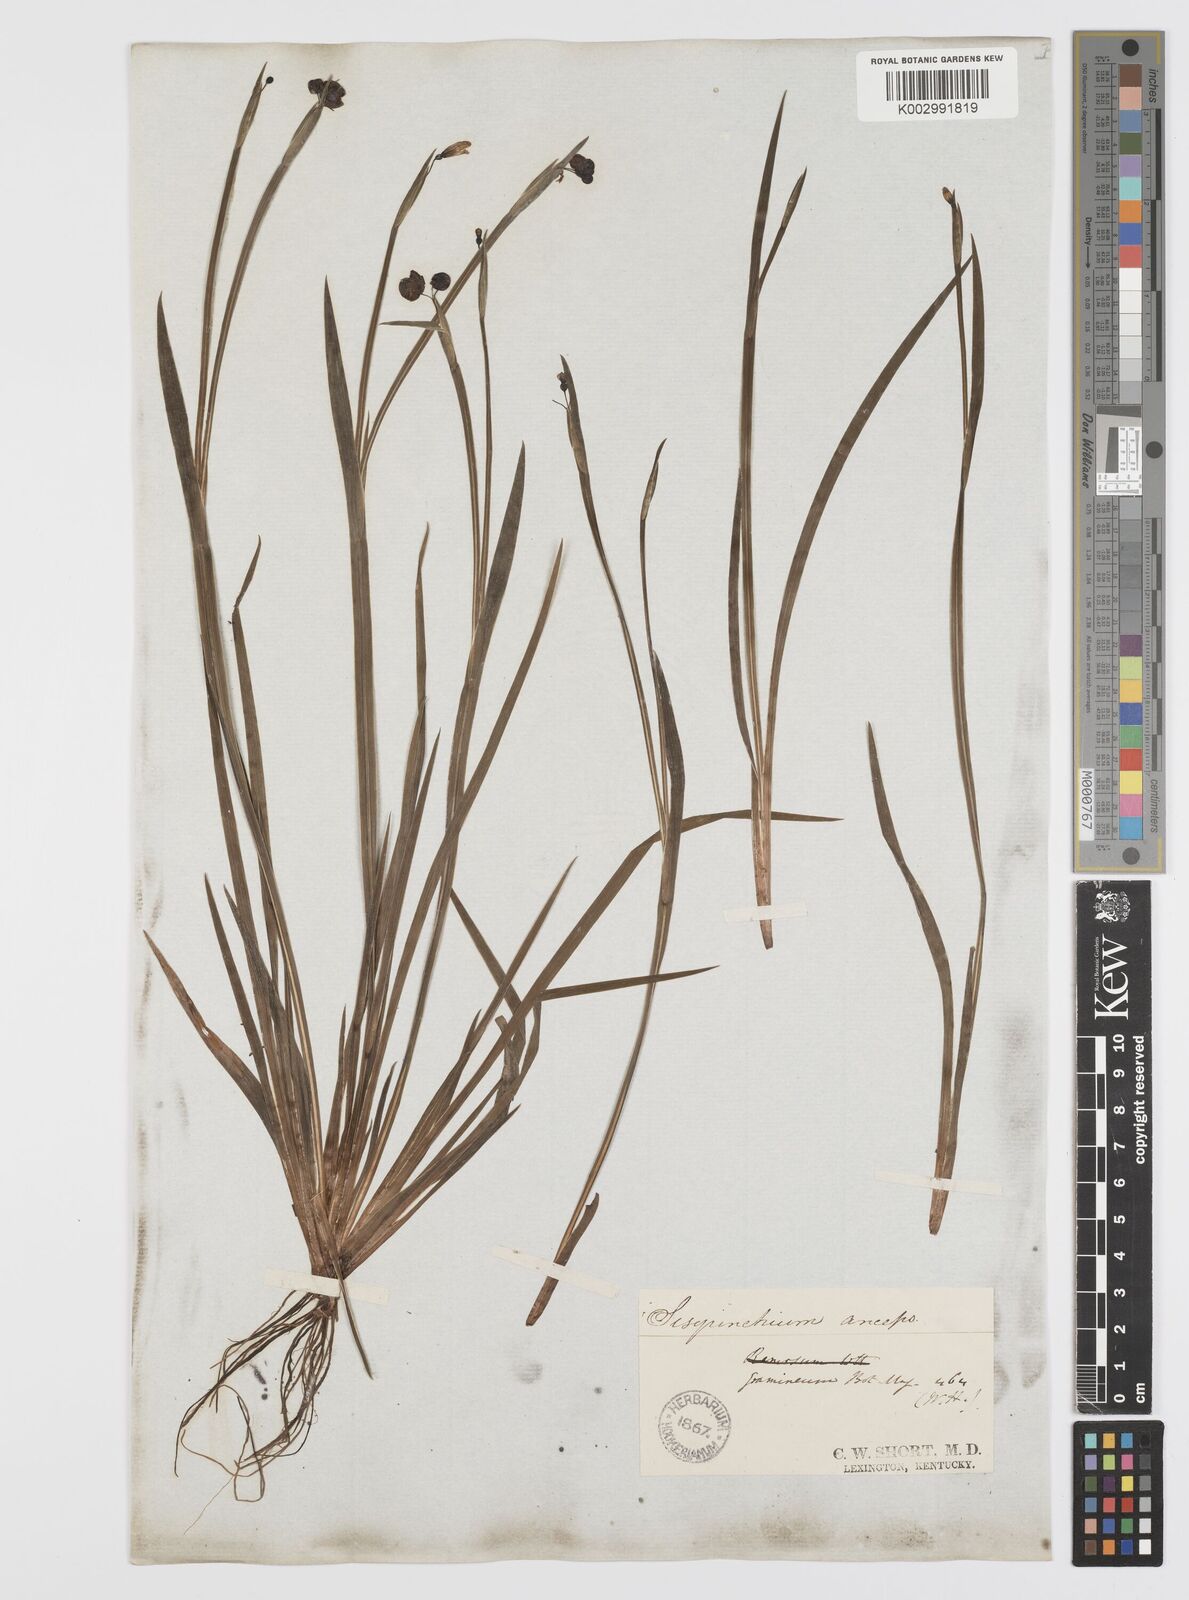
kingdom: Plantae
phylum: Tracheophyta
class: Liliopsida
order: Asparagales
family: Iridaceae
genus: Sisyrinchium
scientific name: Sisyrinchium bermudiana
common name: Blue-eyed-grass
